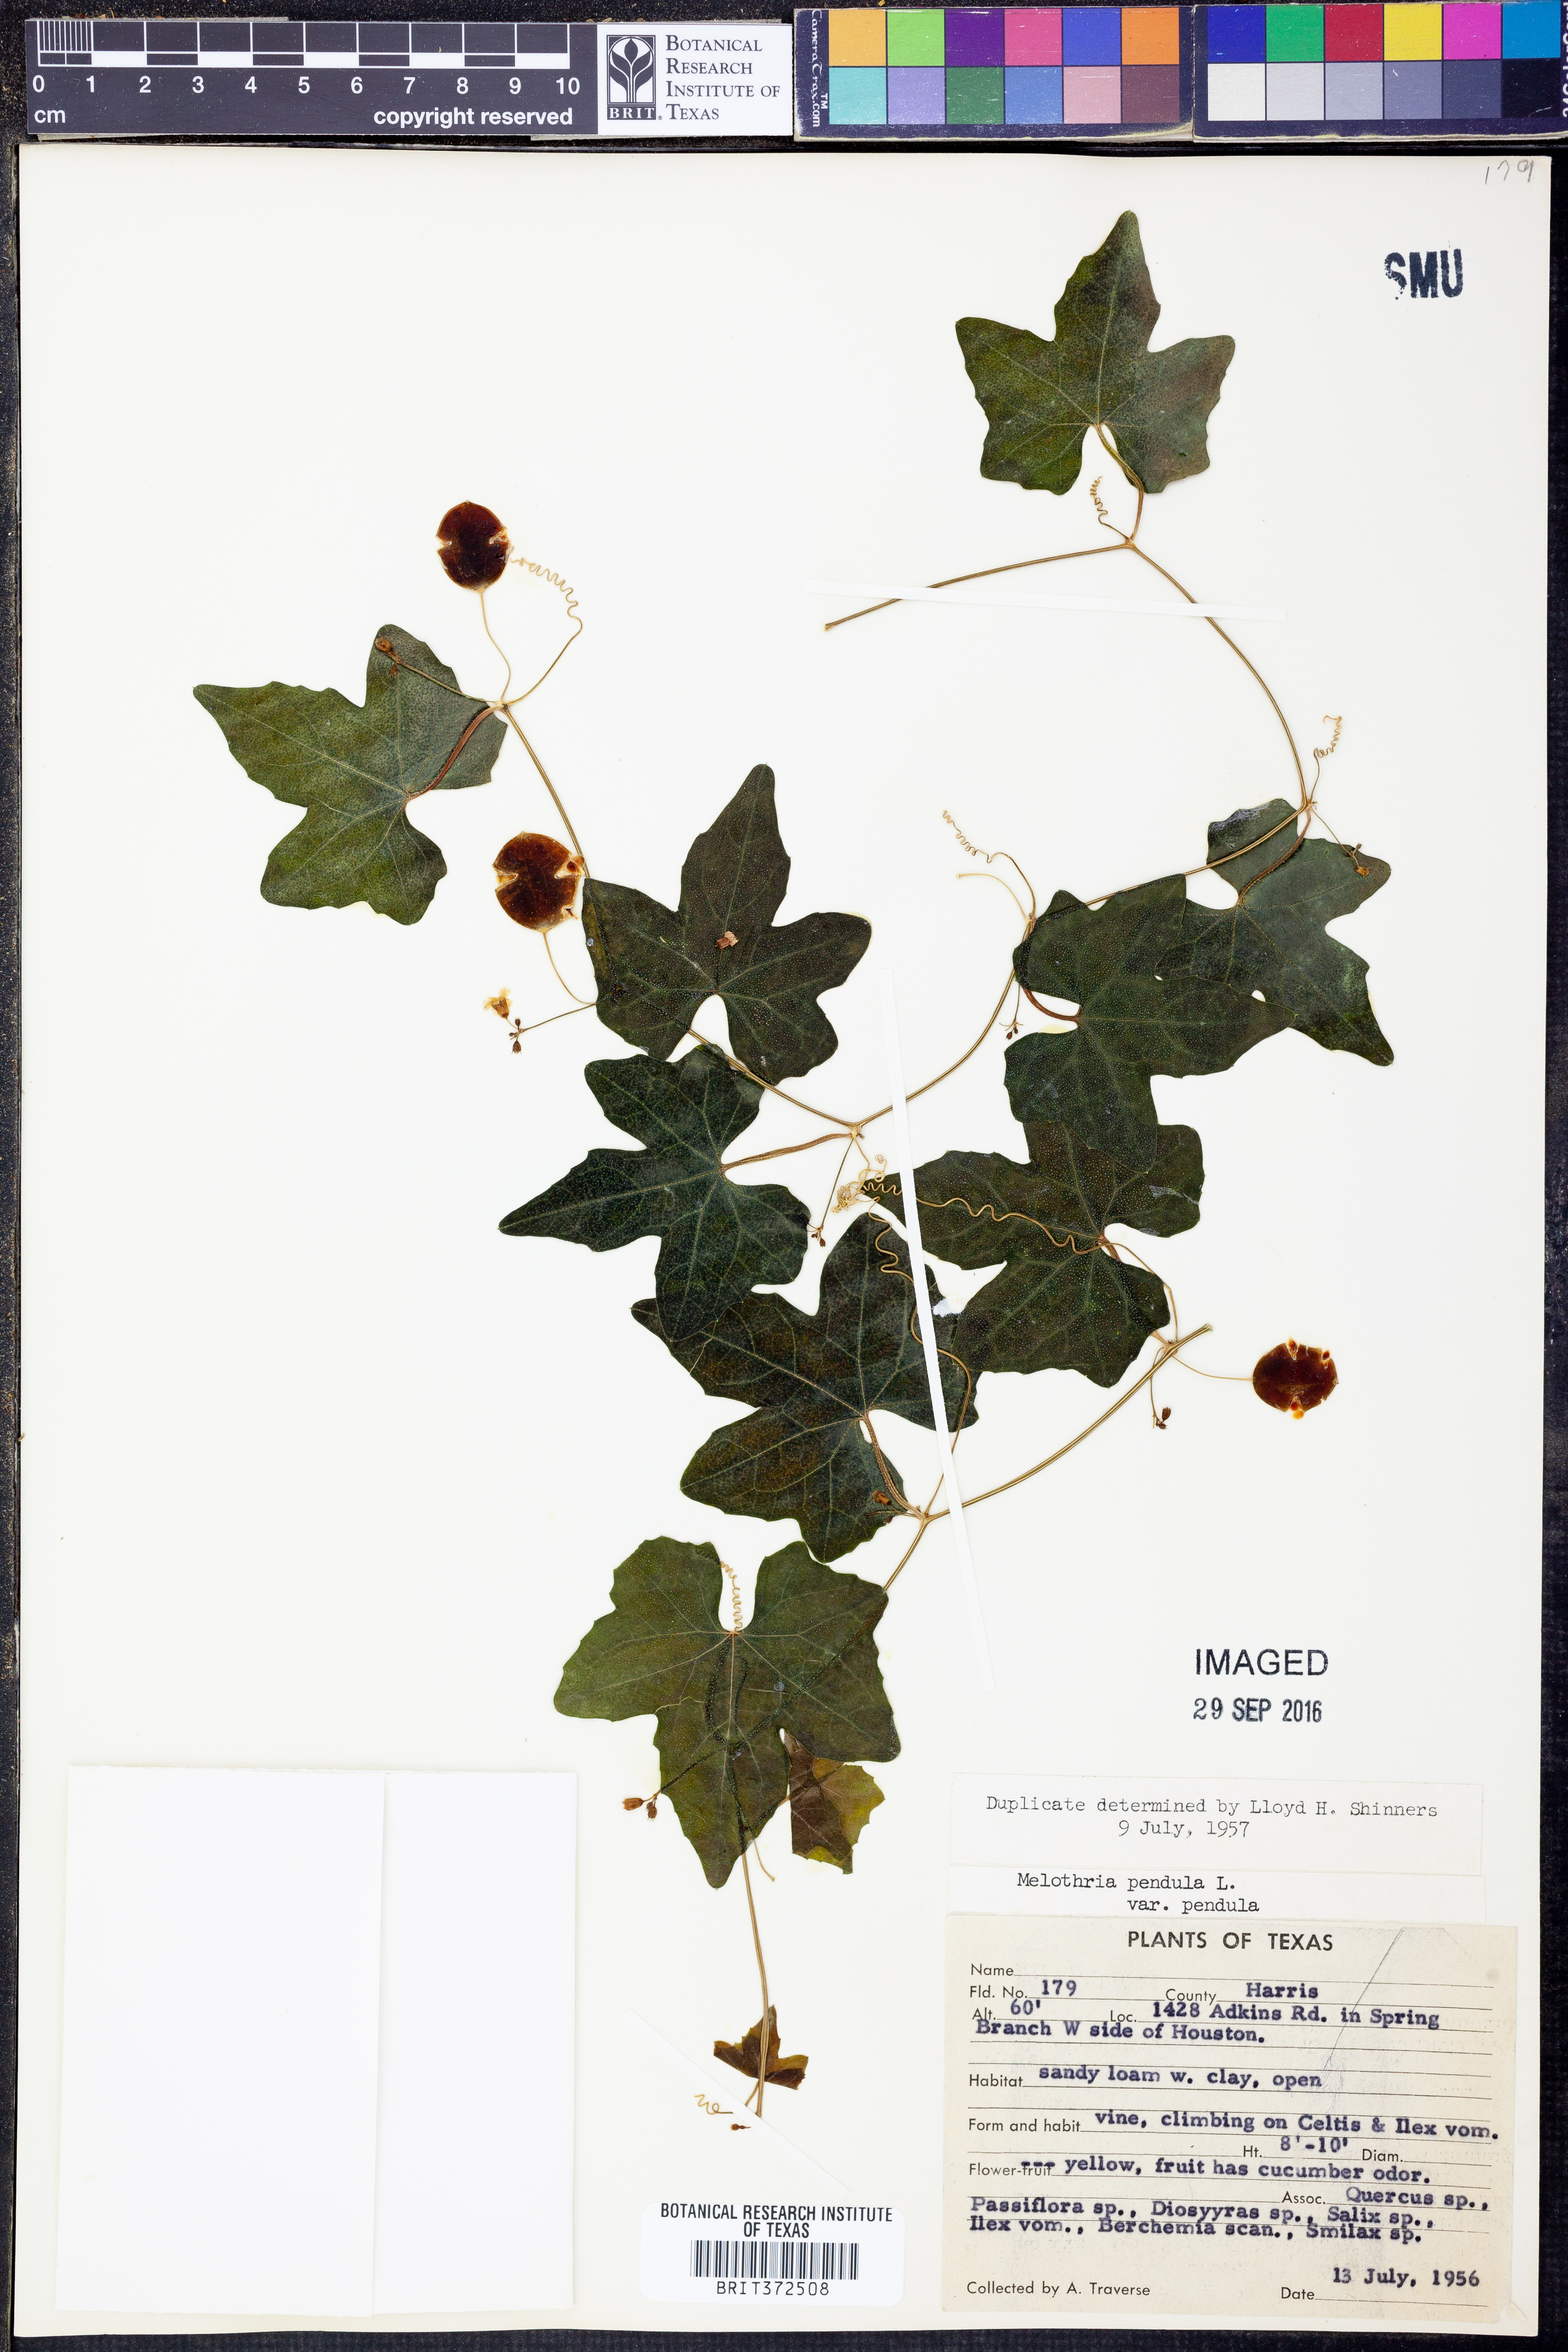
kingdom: Plantae
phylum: Tracheophyta
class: Magnoliopsida
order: Cucurbitales
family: Cucurbitaceae
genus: Melothria
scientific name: Melothria pendula
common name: Creeping-cucumber
